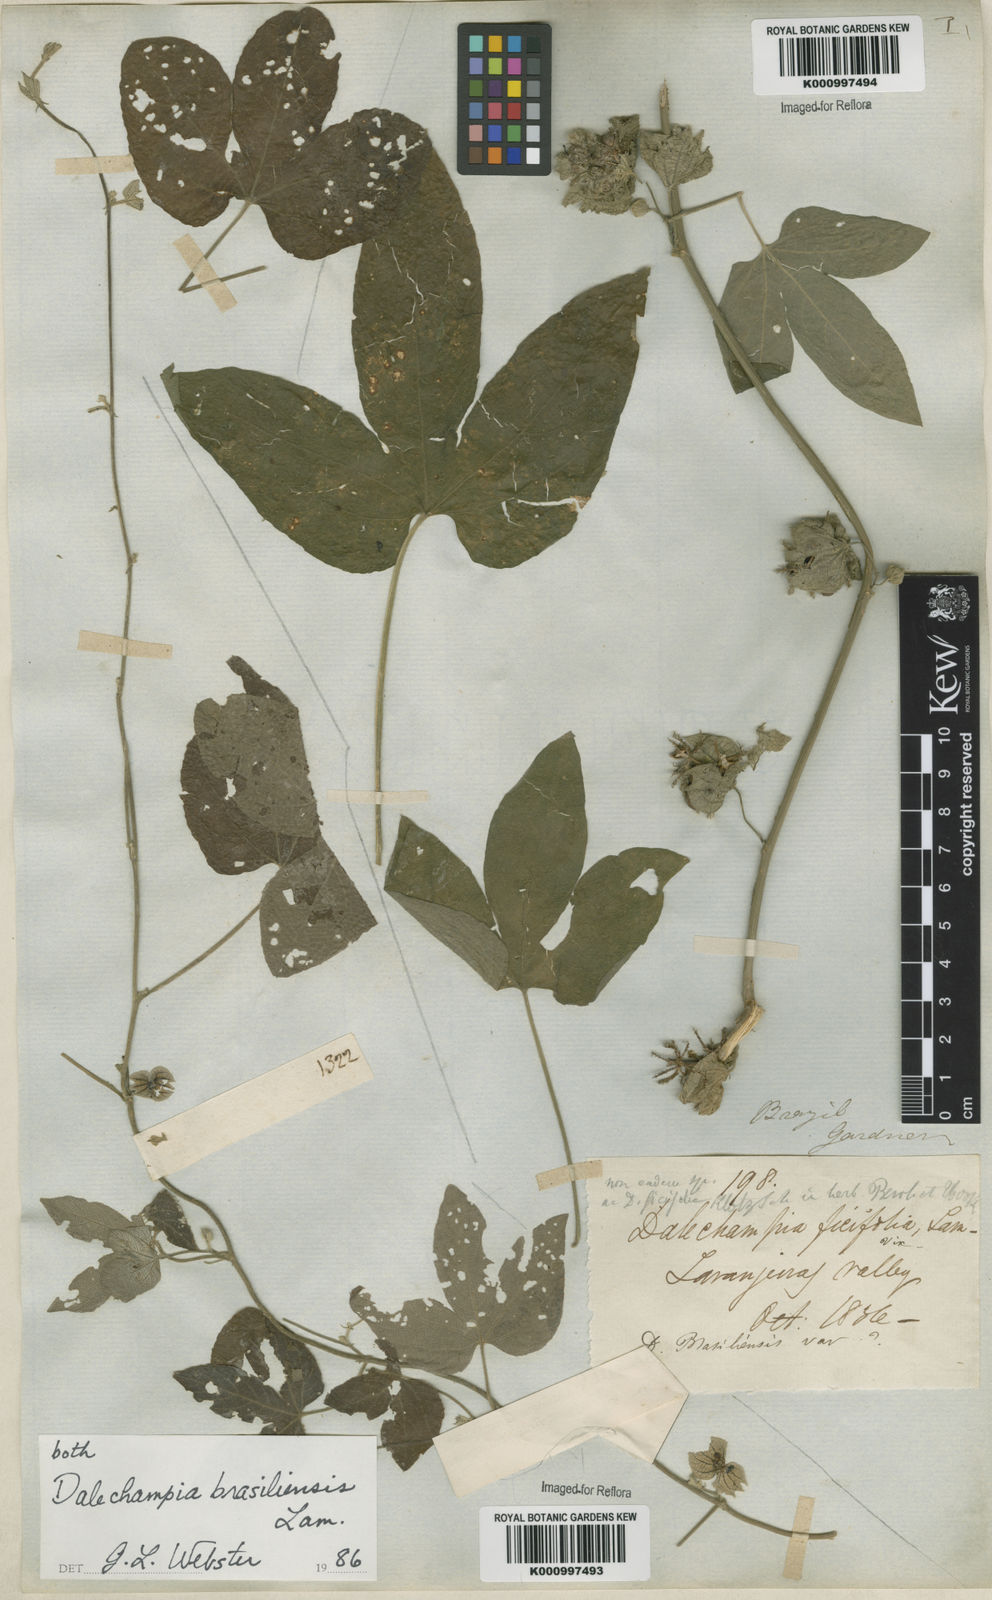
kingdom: Plantae
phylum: Tracheophyta
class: Magnoliopsida
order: Malpighiales
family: Euphorbiaceae
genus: Dalechampia
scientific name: Dalechampia brasiliensis
